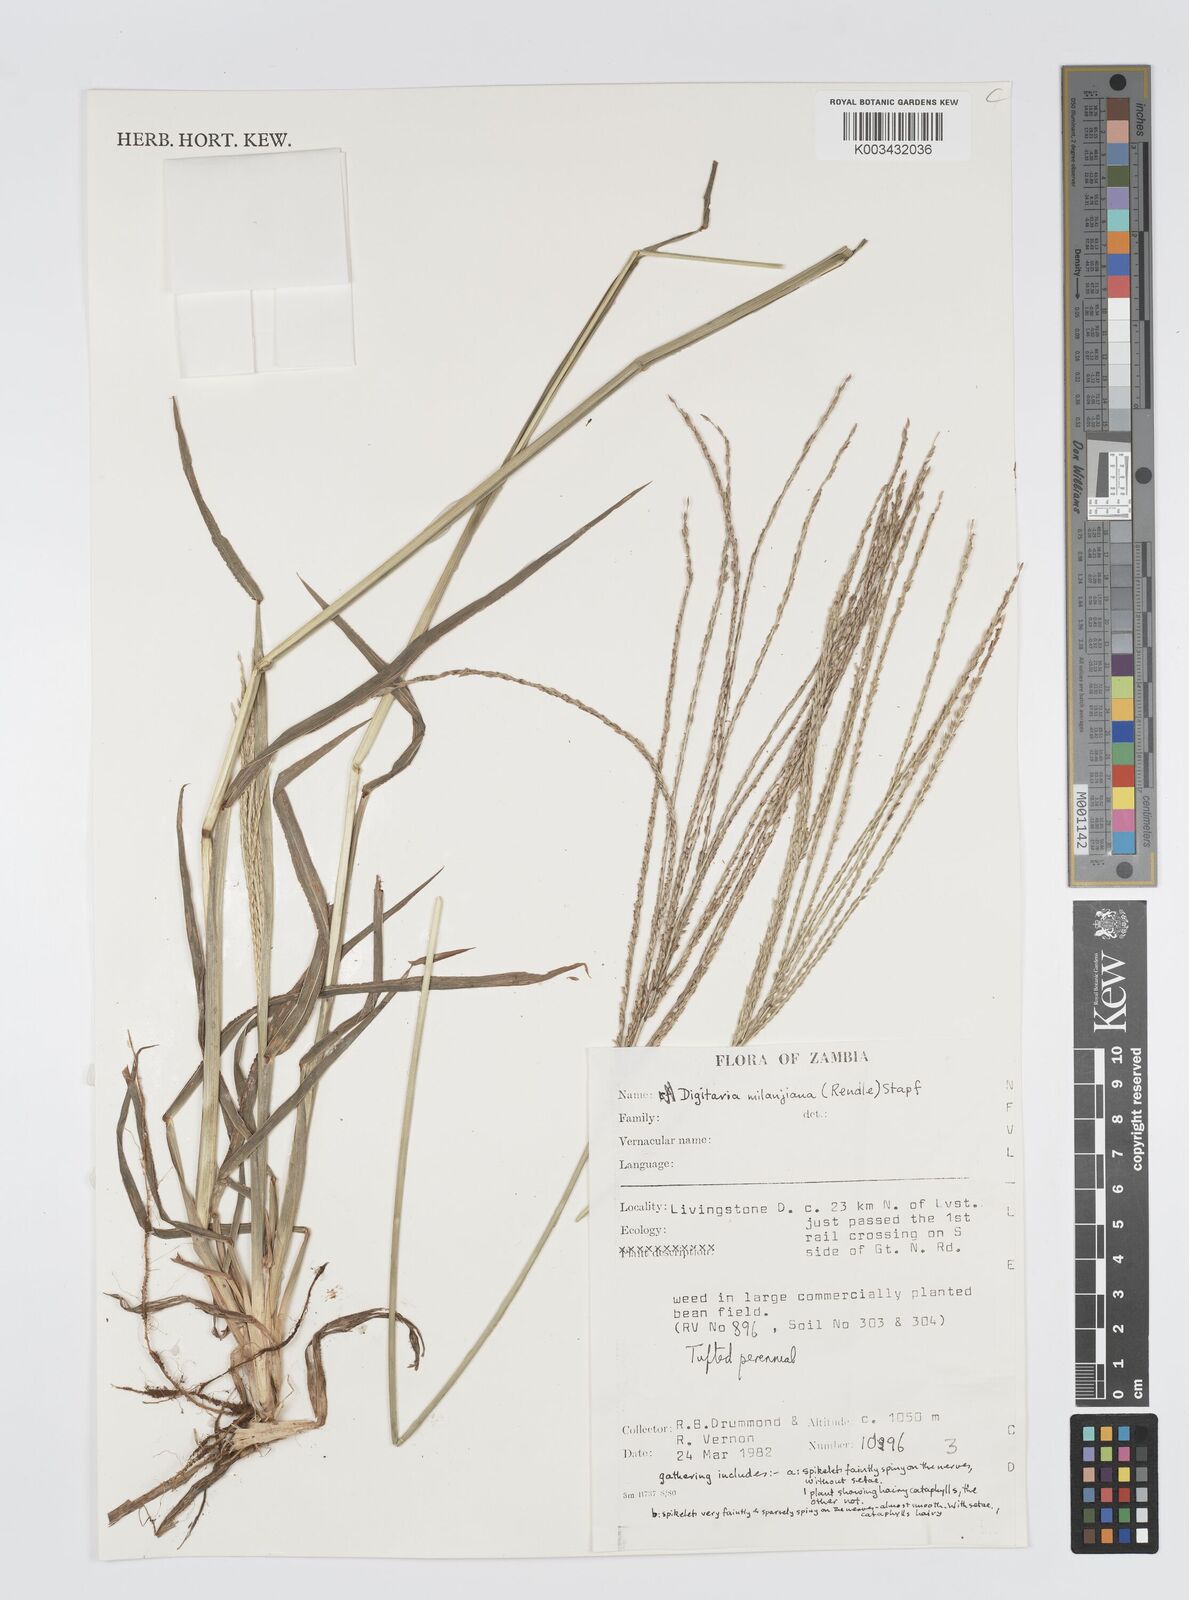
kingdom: Plantae
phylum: Tracheophyta
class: Liliopsida
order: Poales
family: Poaceae
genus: Digitaria
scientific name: Digitaria milanjiana
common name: Madagascar crabgrass
